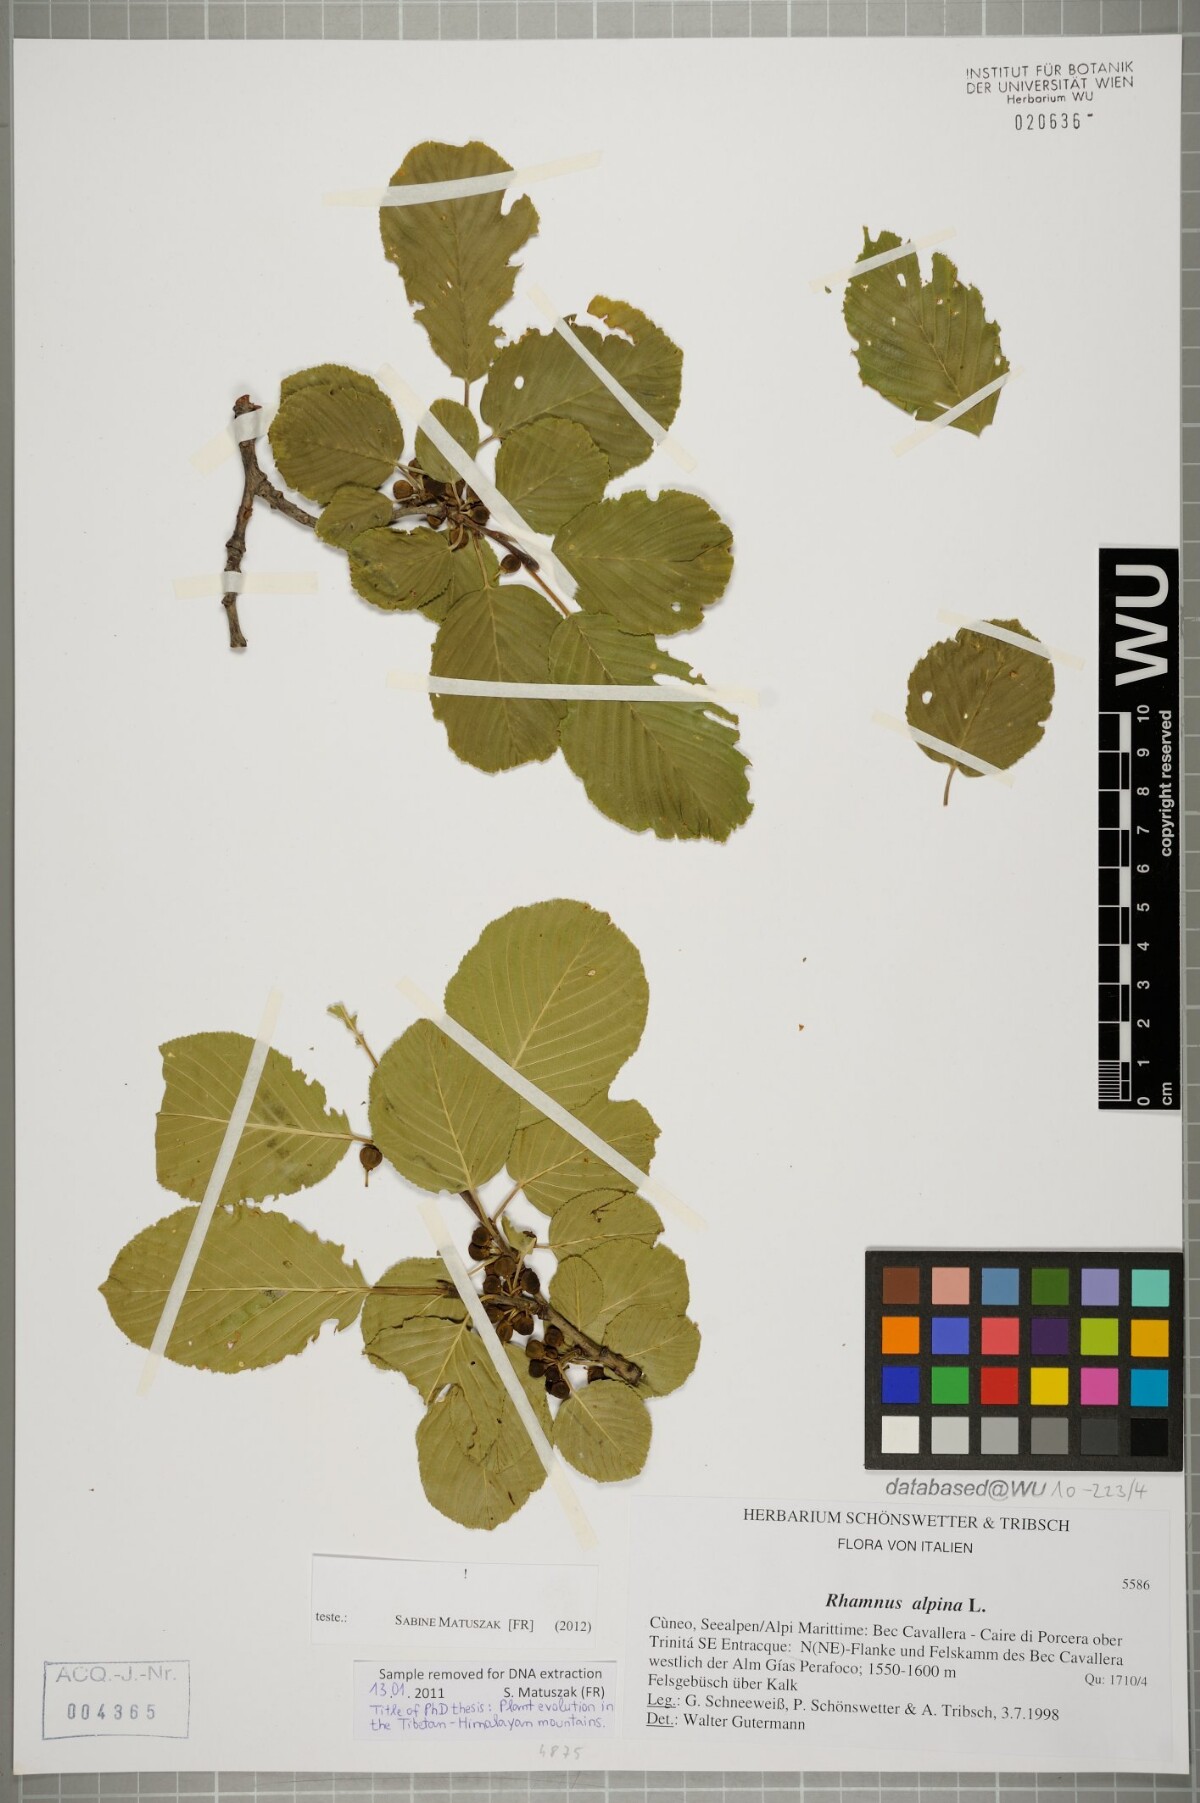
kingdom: Plantae
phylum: Tracheophyta
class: Magnoliopsida
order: Rosales
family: Rhamnaceae
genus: Atadinus
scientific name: Atadinus alpinus
